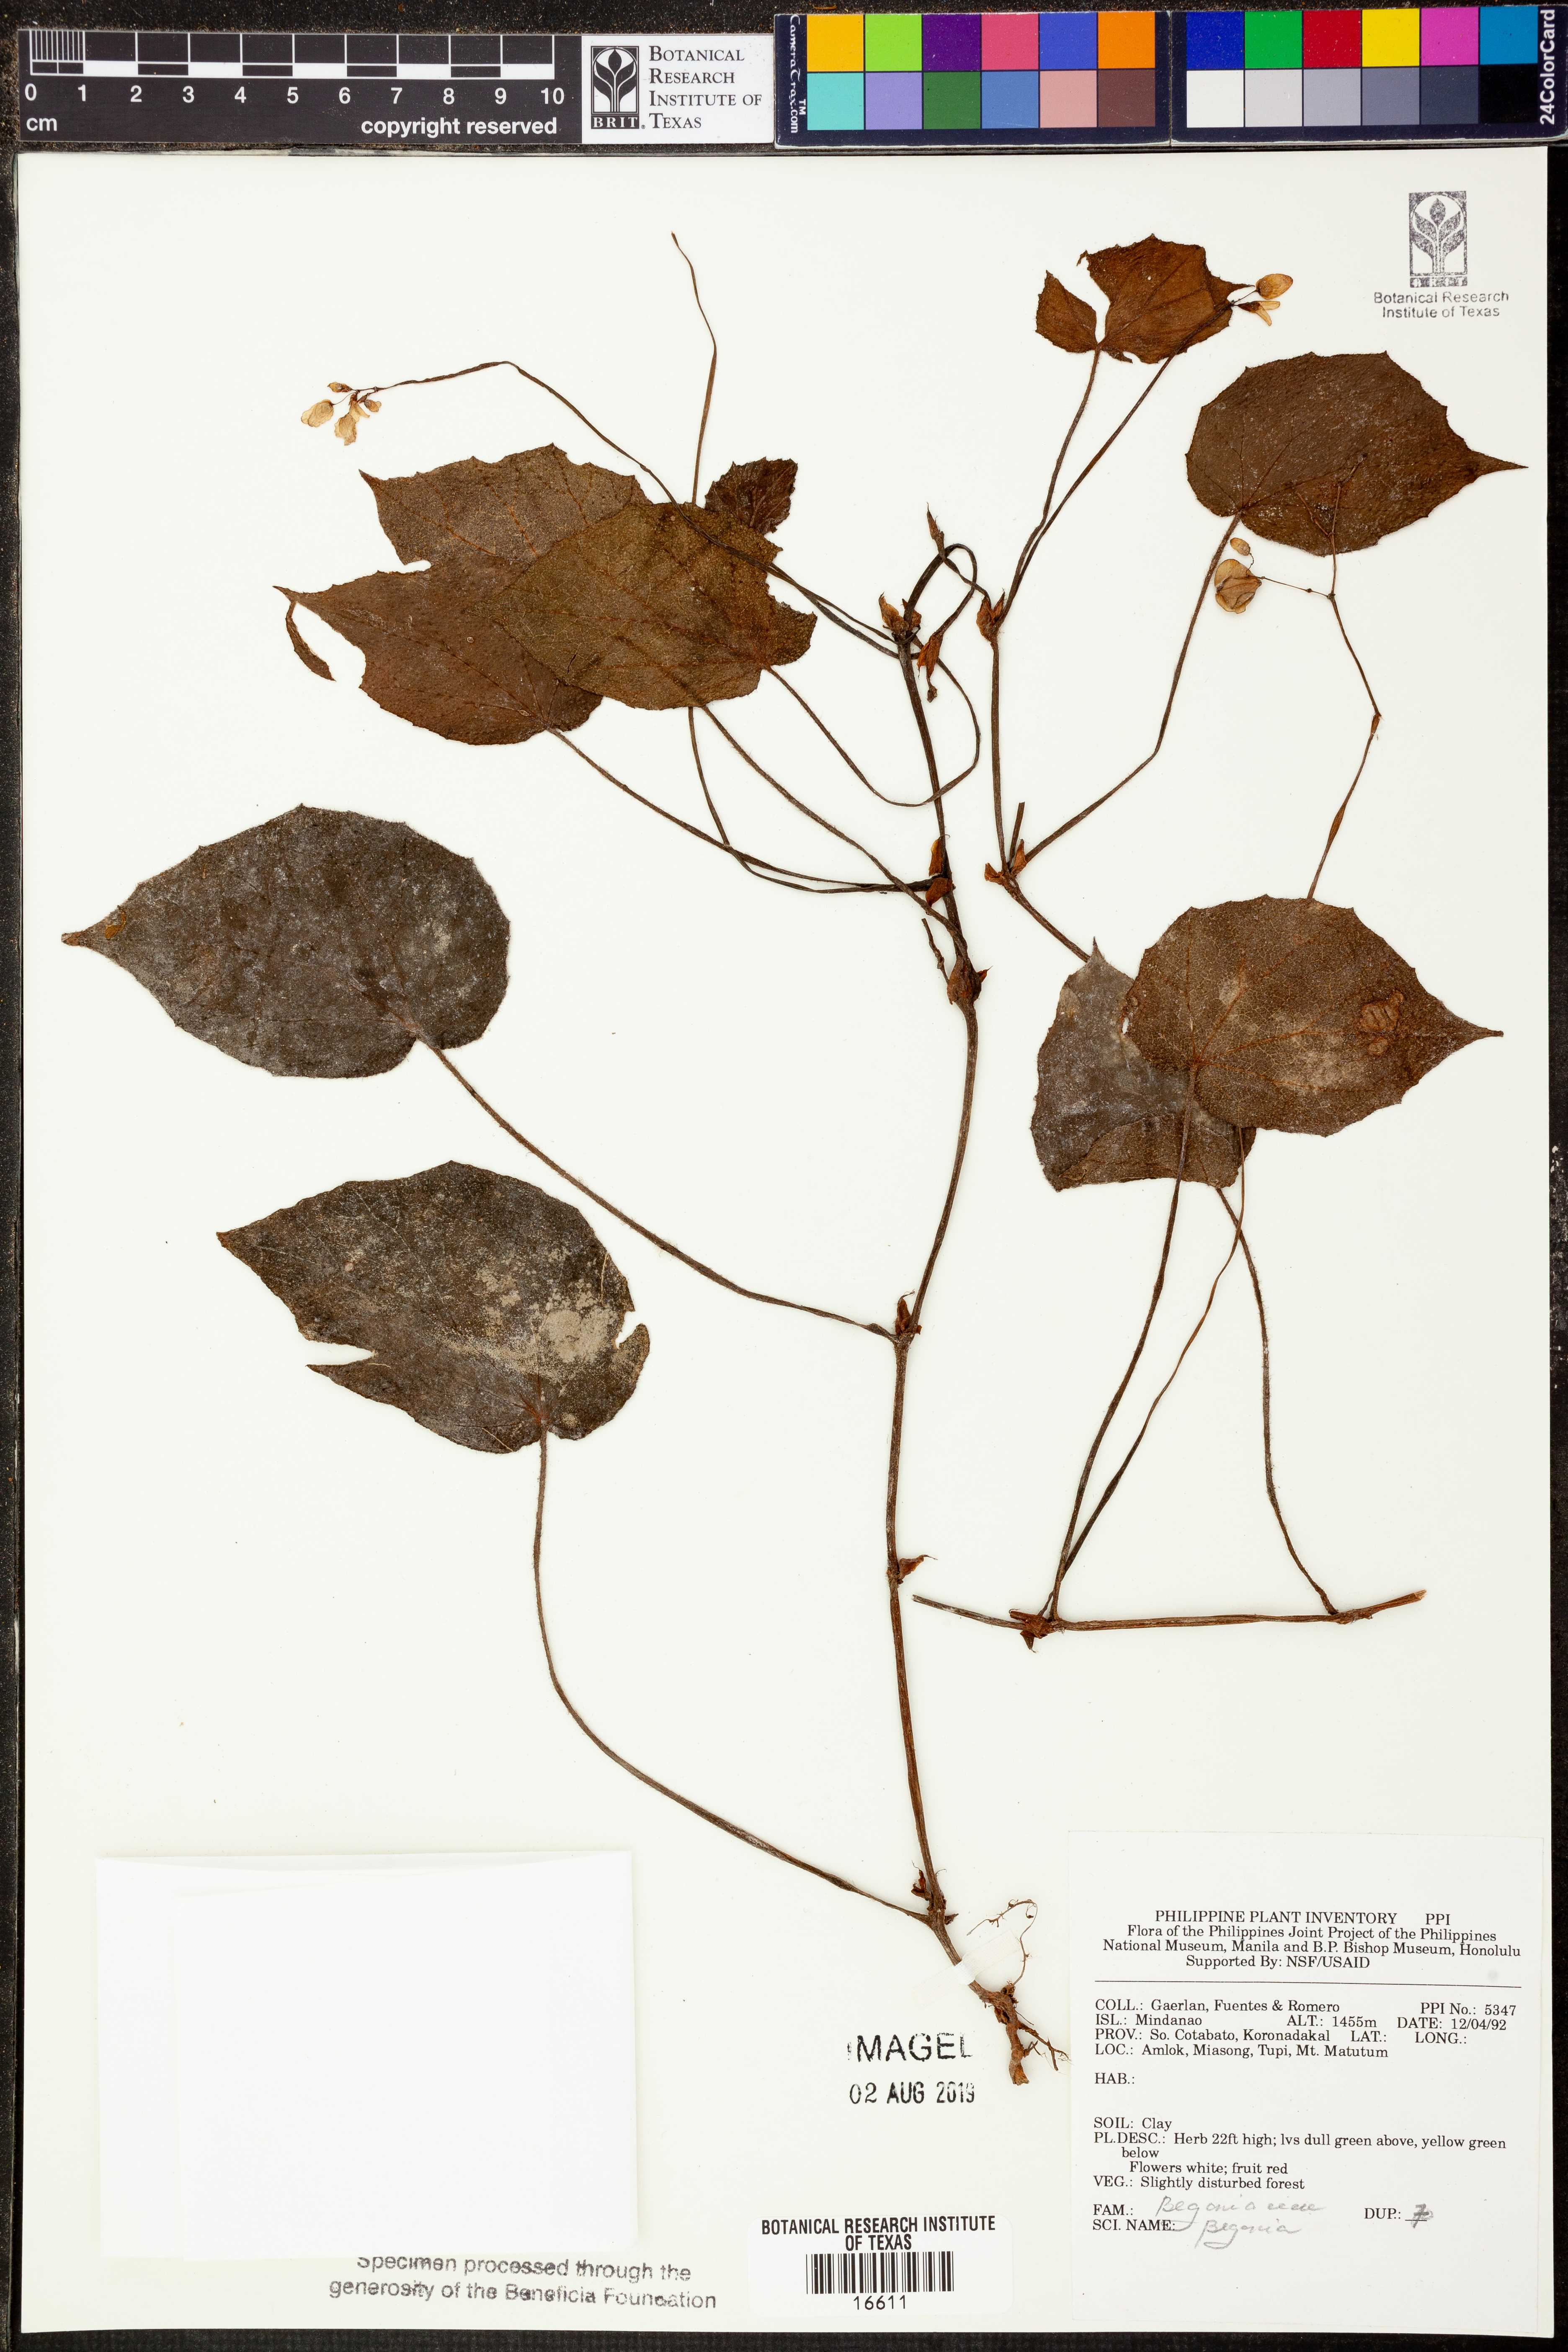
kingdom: Plantae
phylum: Tracheophyta
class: Magnoliopsida
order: Cucurbitales
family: Begoniaceae
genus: Begonia
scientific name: Begonia
